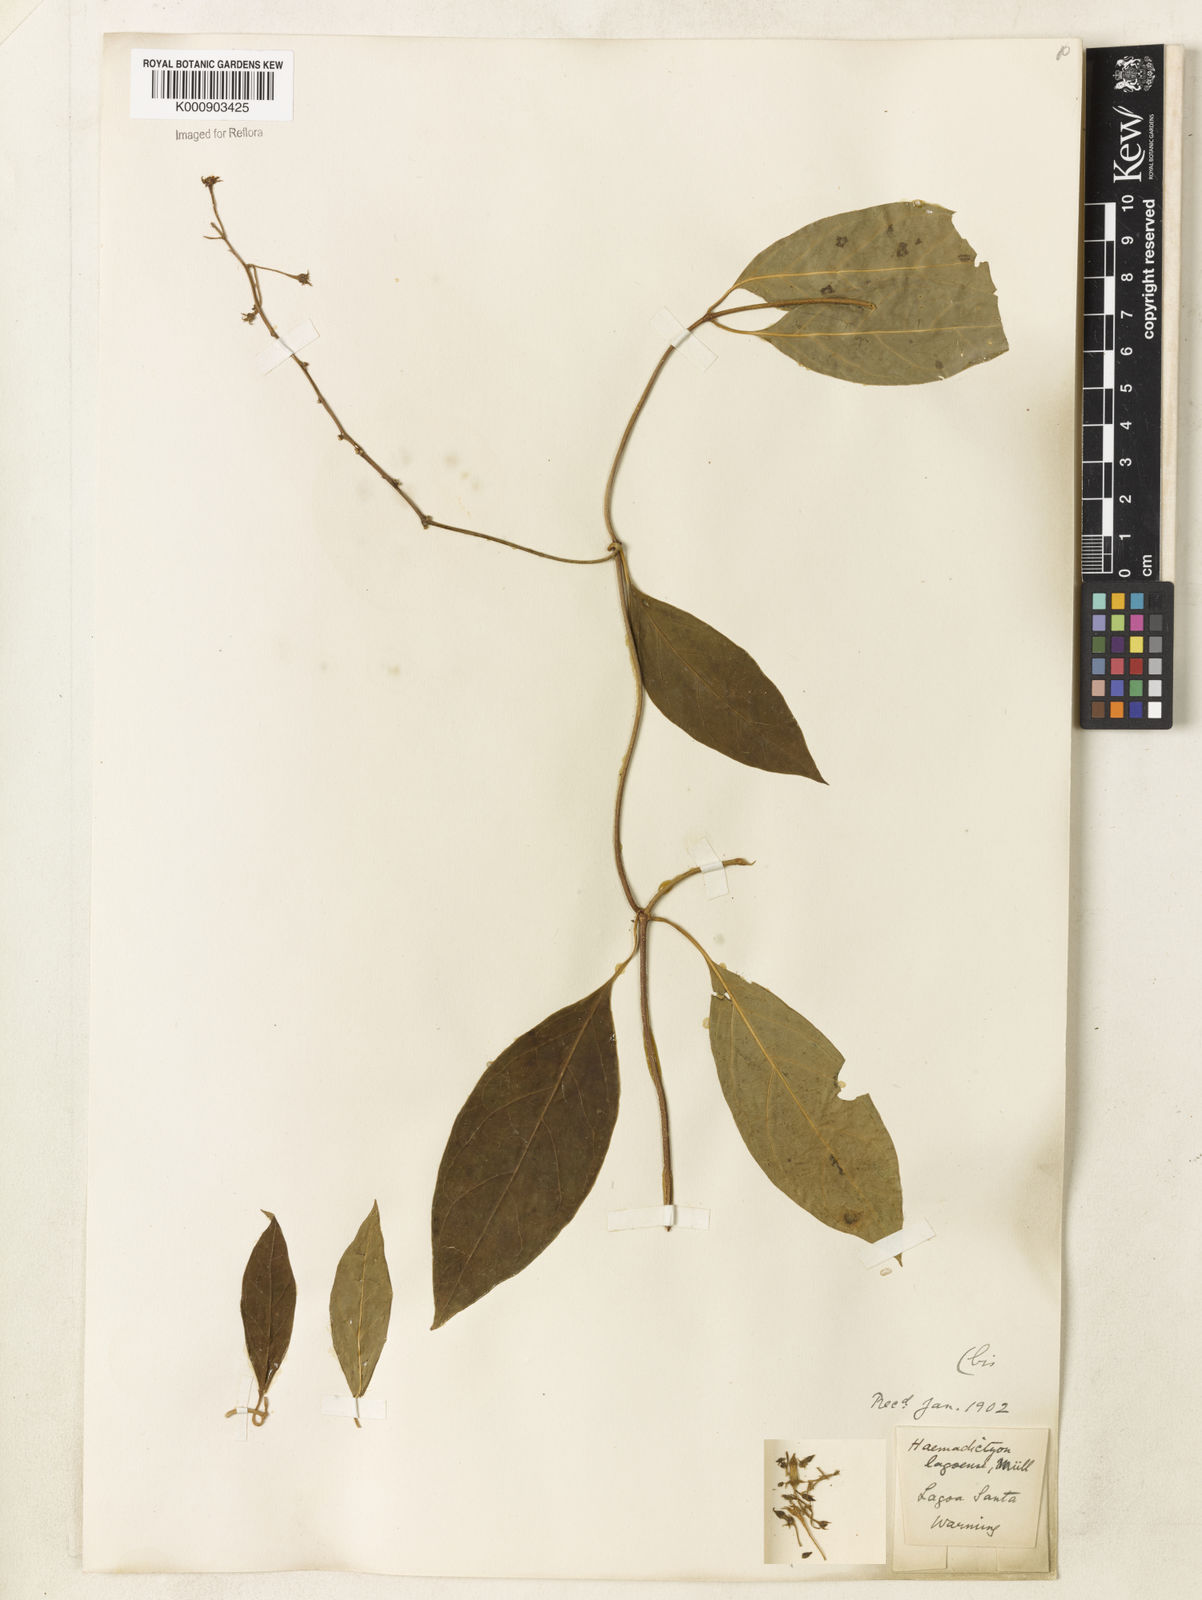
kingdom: Plantae
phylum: Tracheophyta
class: Magnoliopsida
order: Gentianales
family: Apocynaceae
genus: Prestonia
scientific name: Prestonia
